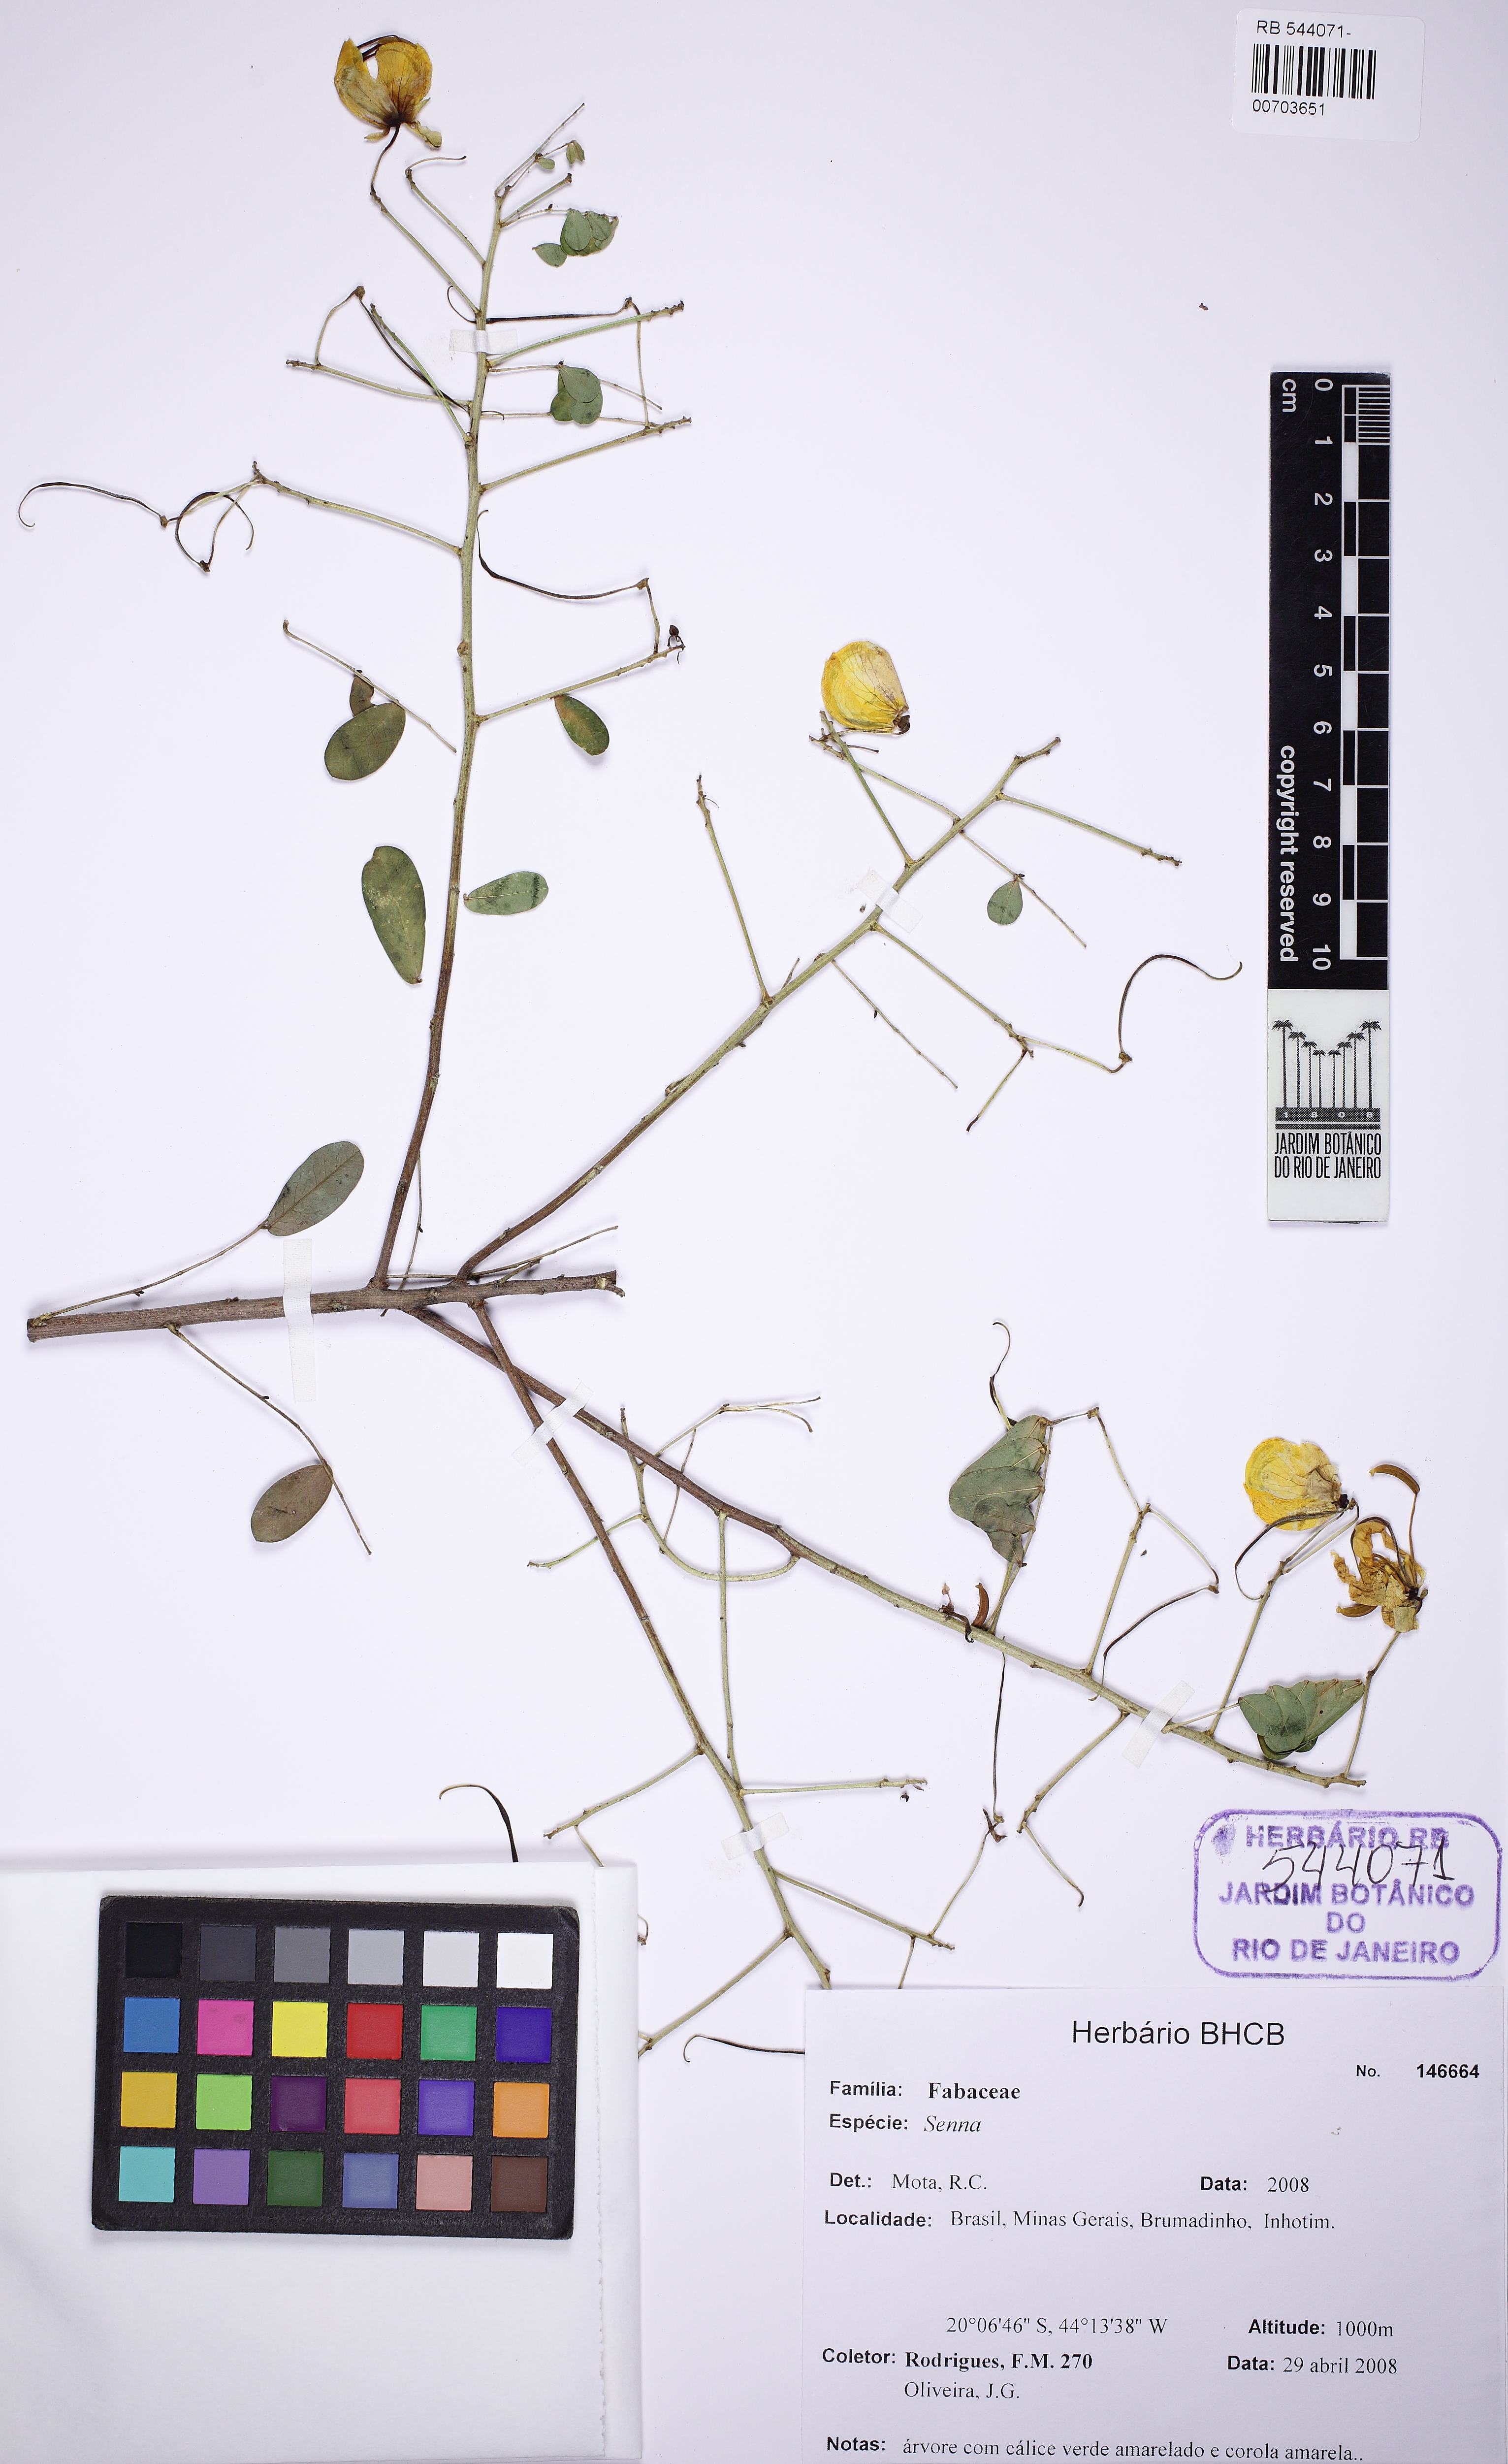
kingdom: Plantae
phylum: Tracheophyta
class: Magnoliopsida
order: Fabales
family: Fabaceae
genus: Senna
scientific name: Senna pendula
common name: Easter cassia
